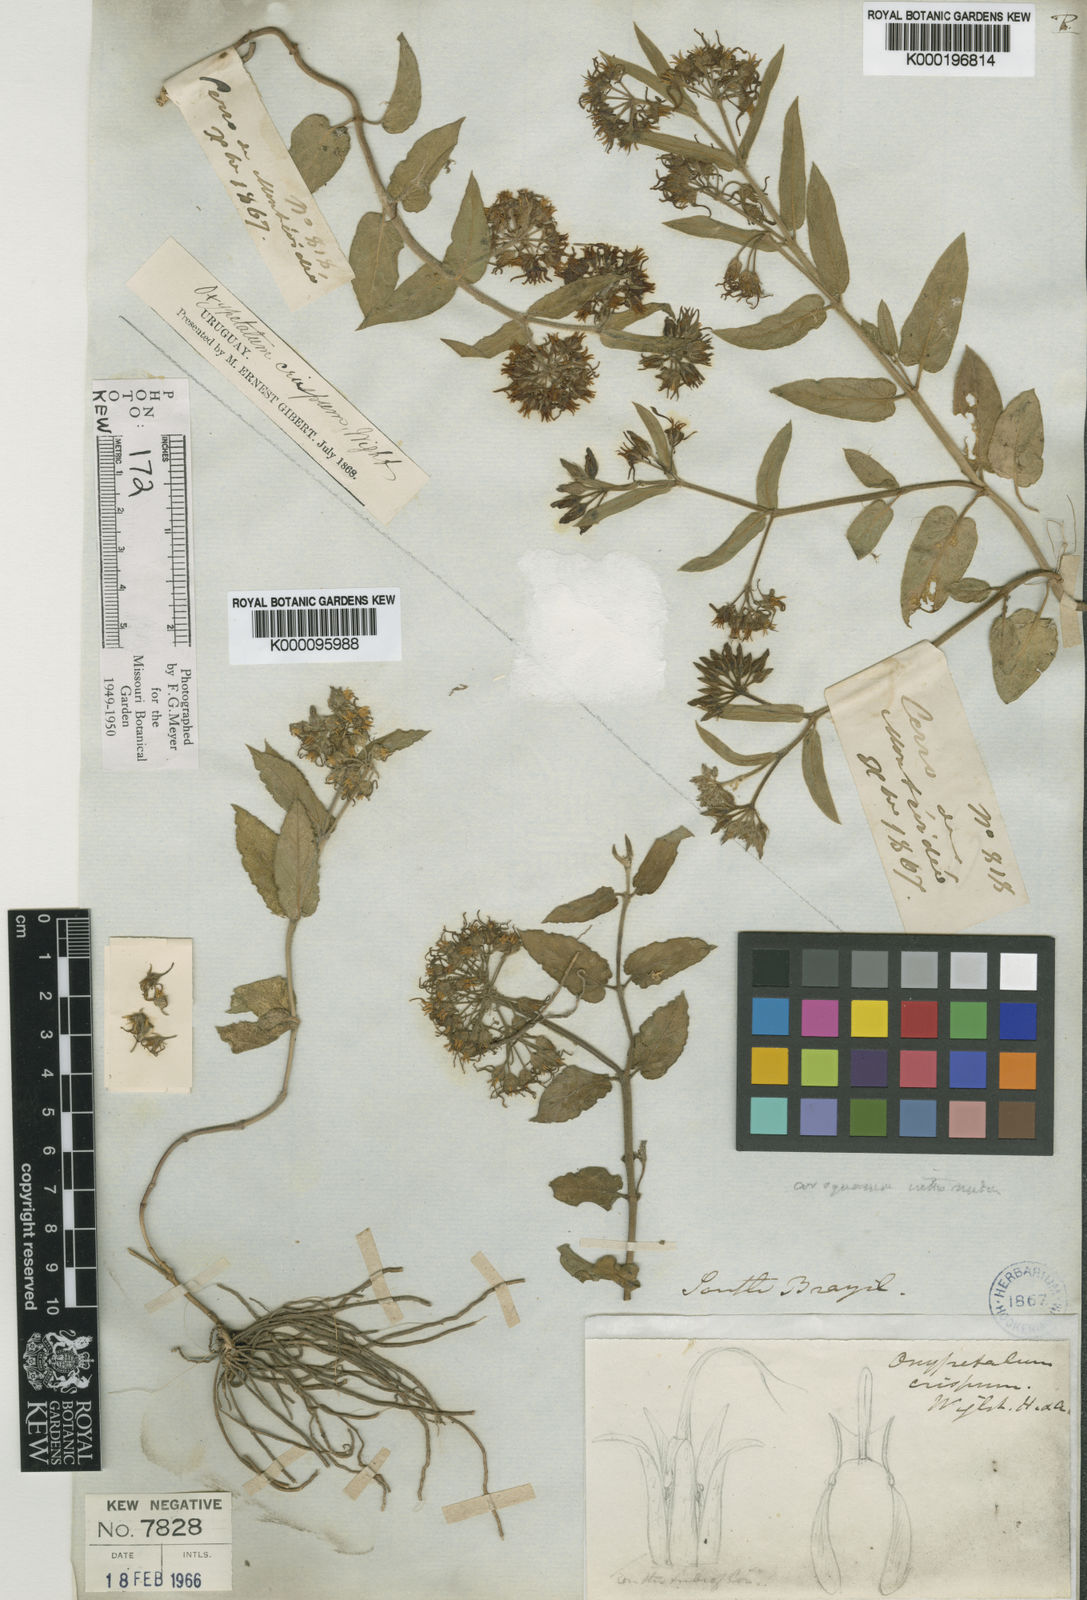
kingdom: Plantae
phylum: Tracheophyta
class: Magnoliopsida
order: Gentianales
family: Apocynaceae
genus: Oxypetalum
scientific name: Oxypetalum crispum
